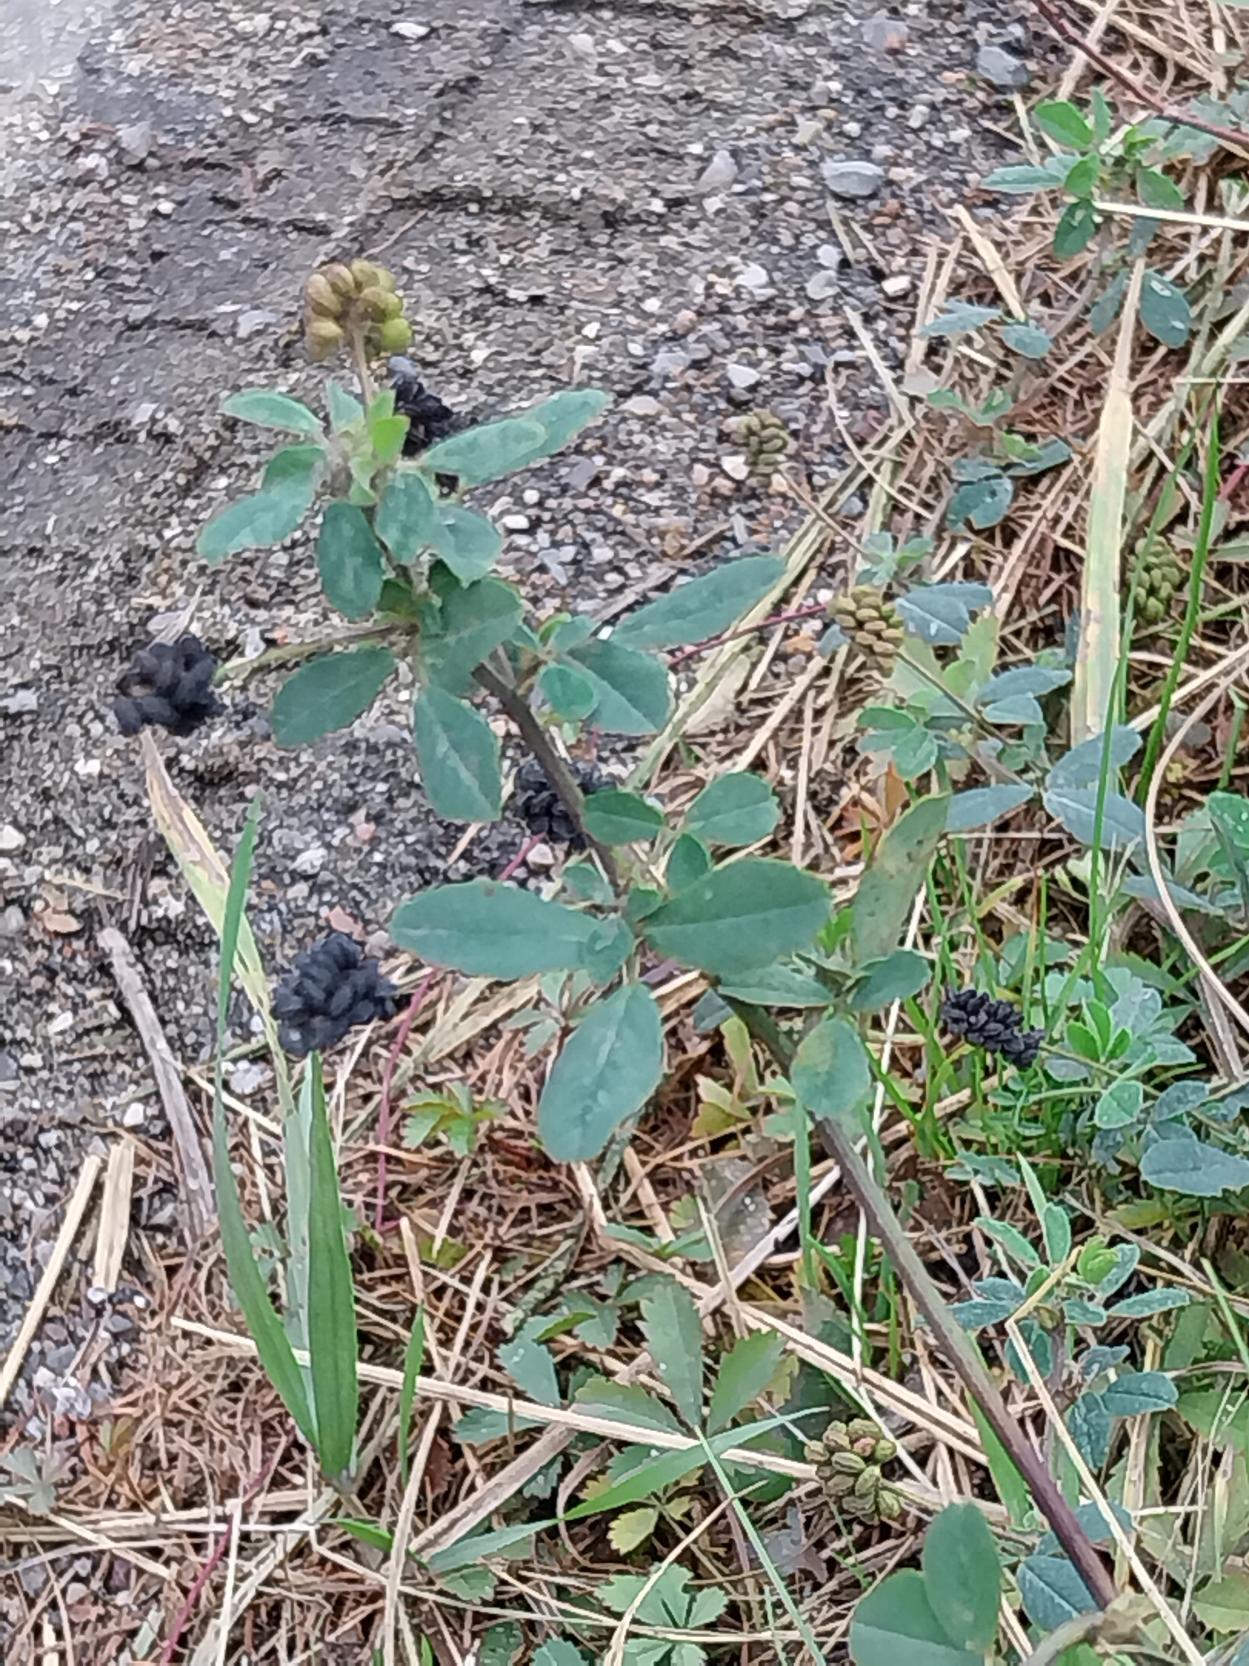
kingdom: Plantae
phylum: Tracheophyta
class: Magnoliopsida
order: Fabales
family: Fabaceae
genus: Medicago
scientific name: Medicago lupulina
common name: Humle-sneglebælg
